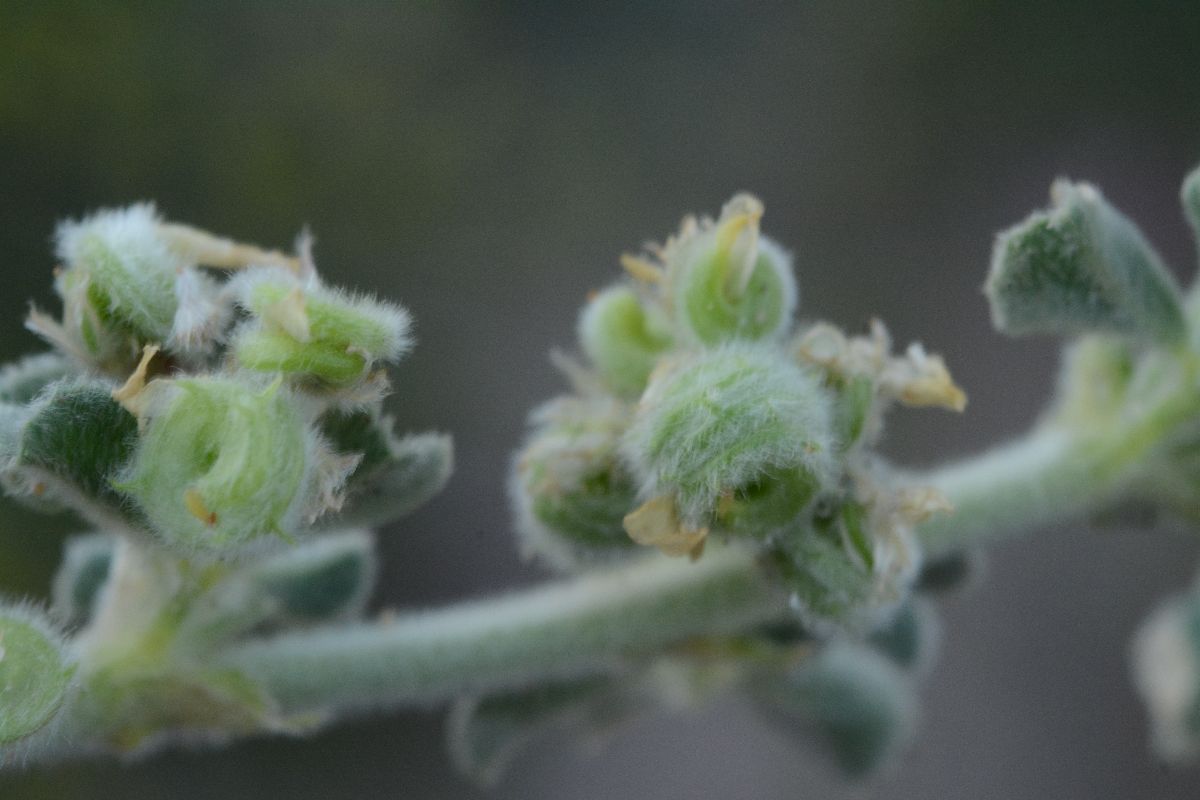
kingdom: Plantae
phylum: Tracheophyta
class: Magnoliopsida
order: Fabales
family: Fabaceae
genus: Medicago
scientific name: Medicago marina
